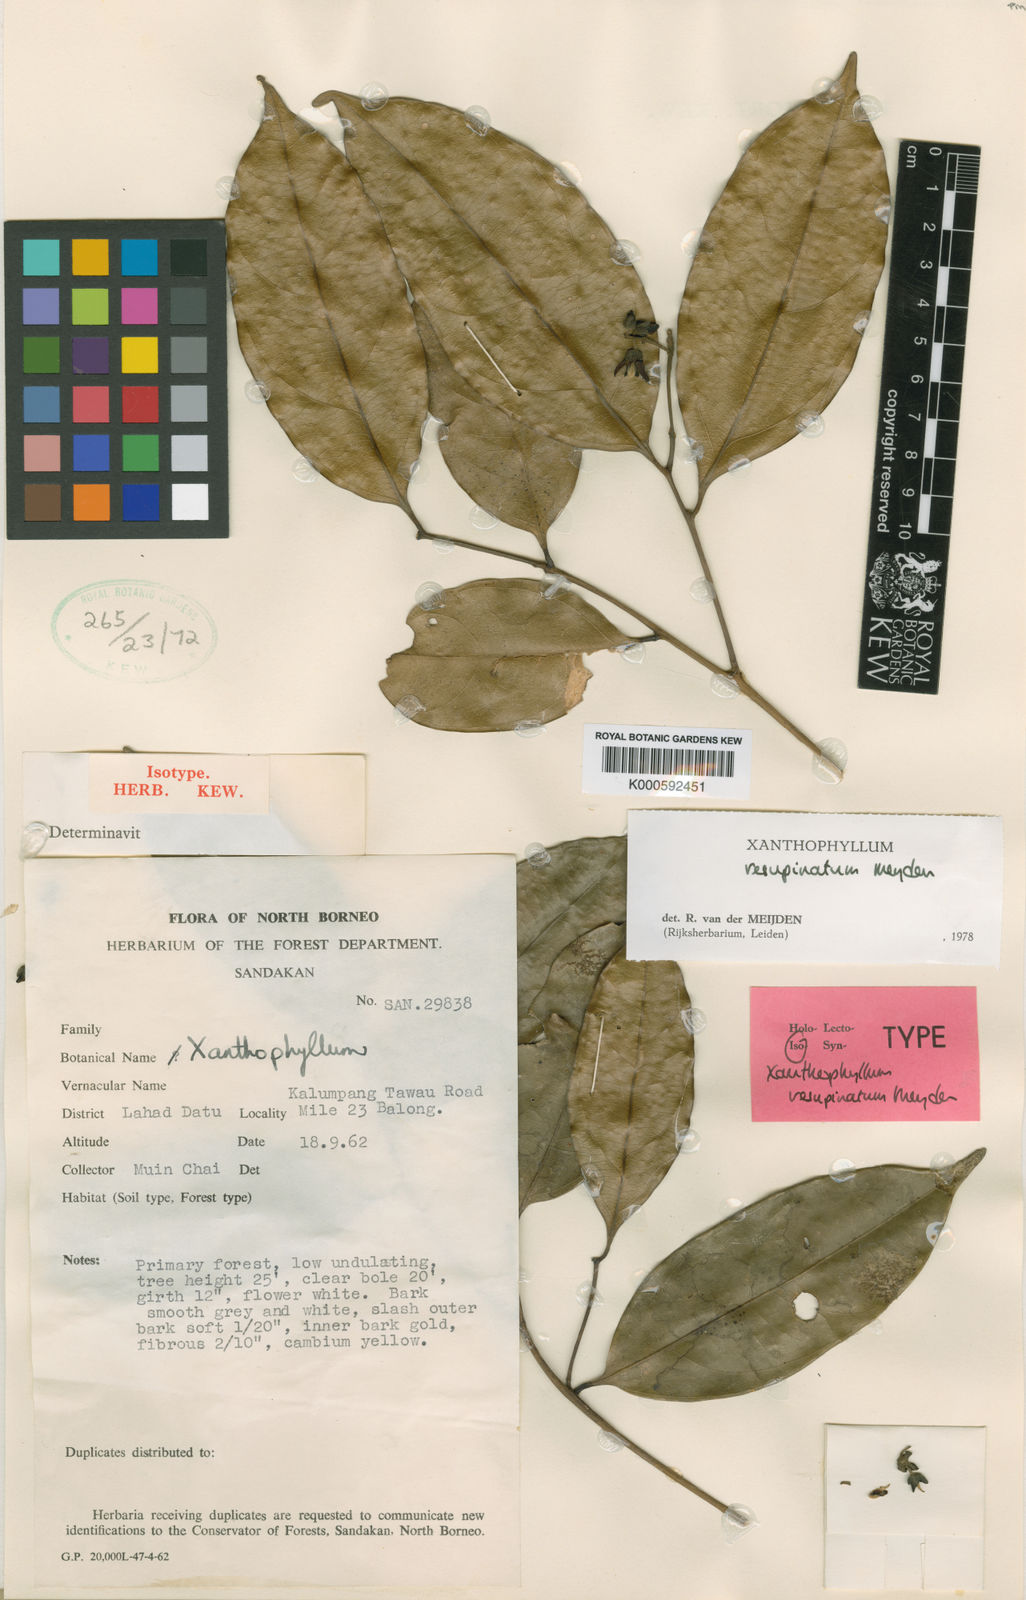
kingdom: Plantae
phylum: Tracheophyta
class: Magnoliopsida
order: Fabales
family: Polygalaceae
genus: Xanthophyllum
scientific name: Xanthophyllum resupinatum
